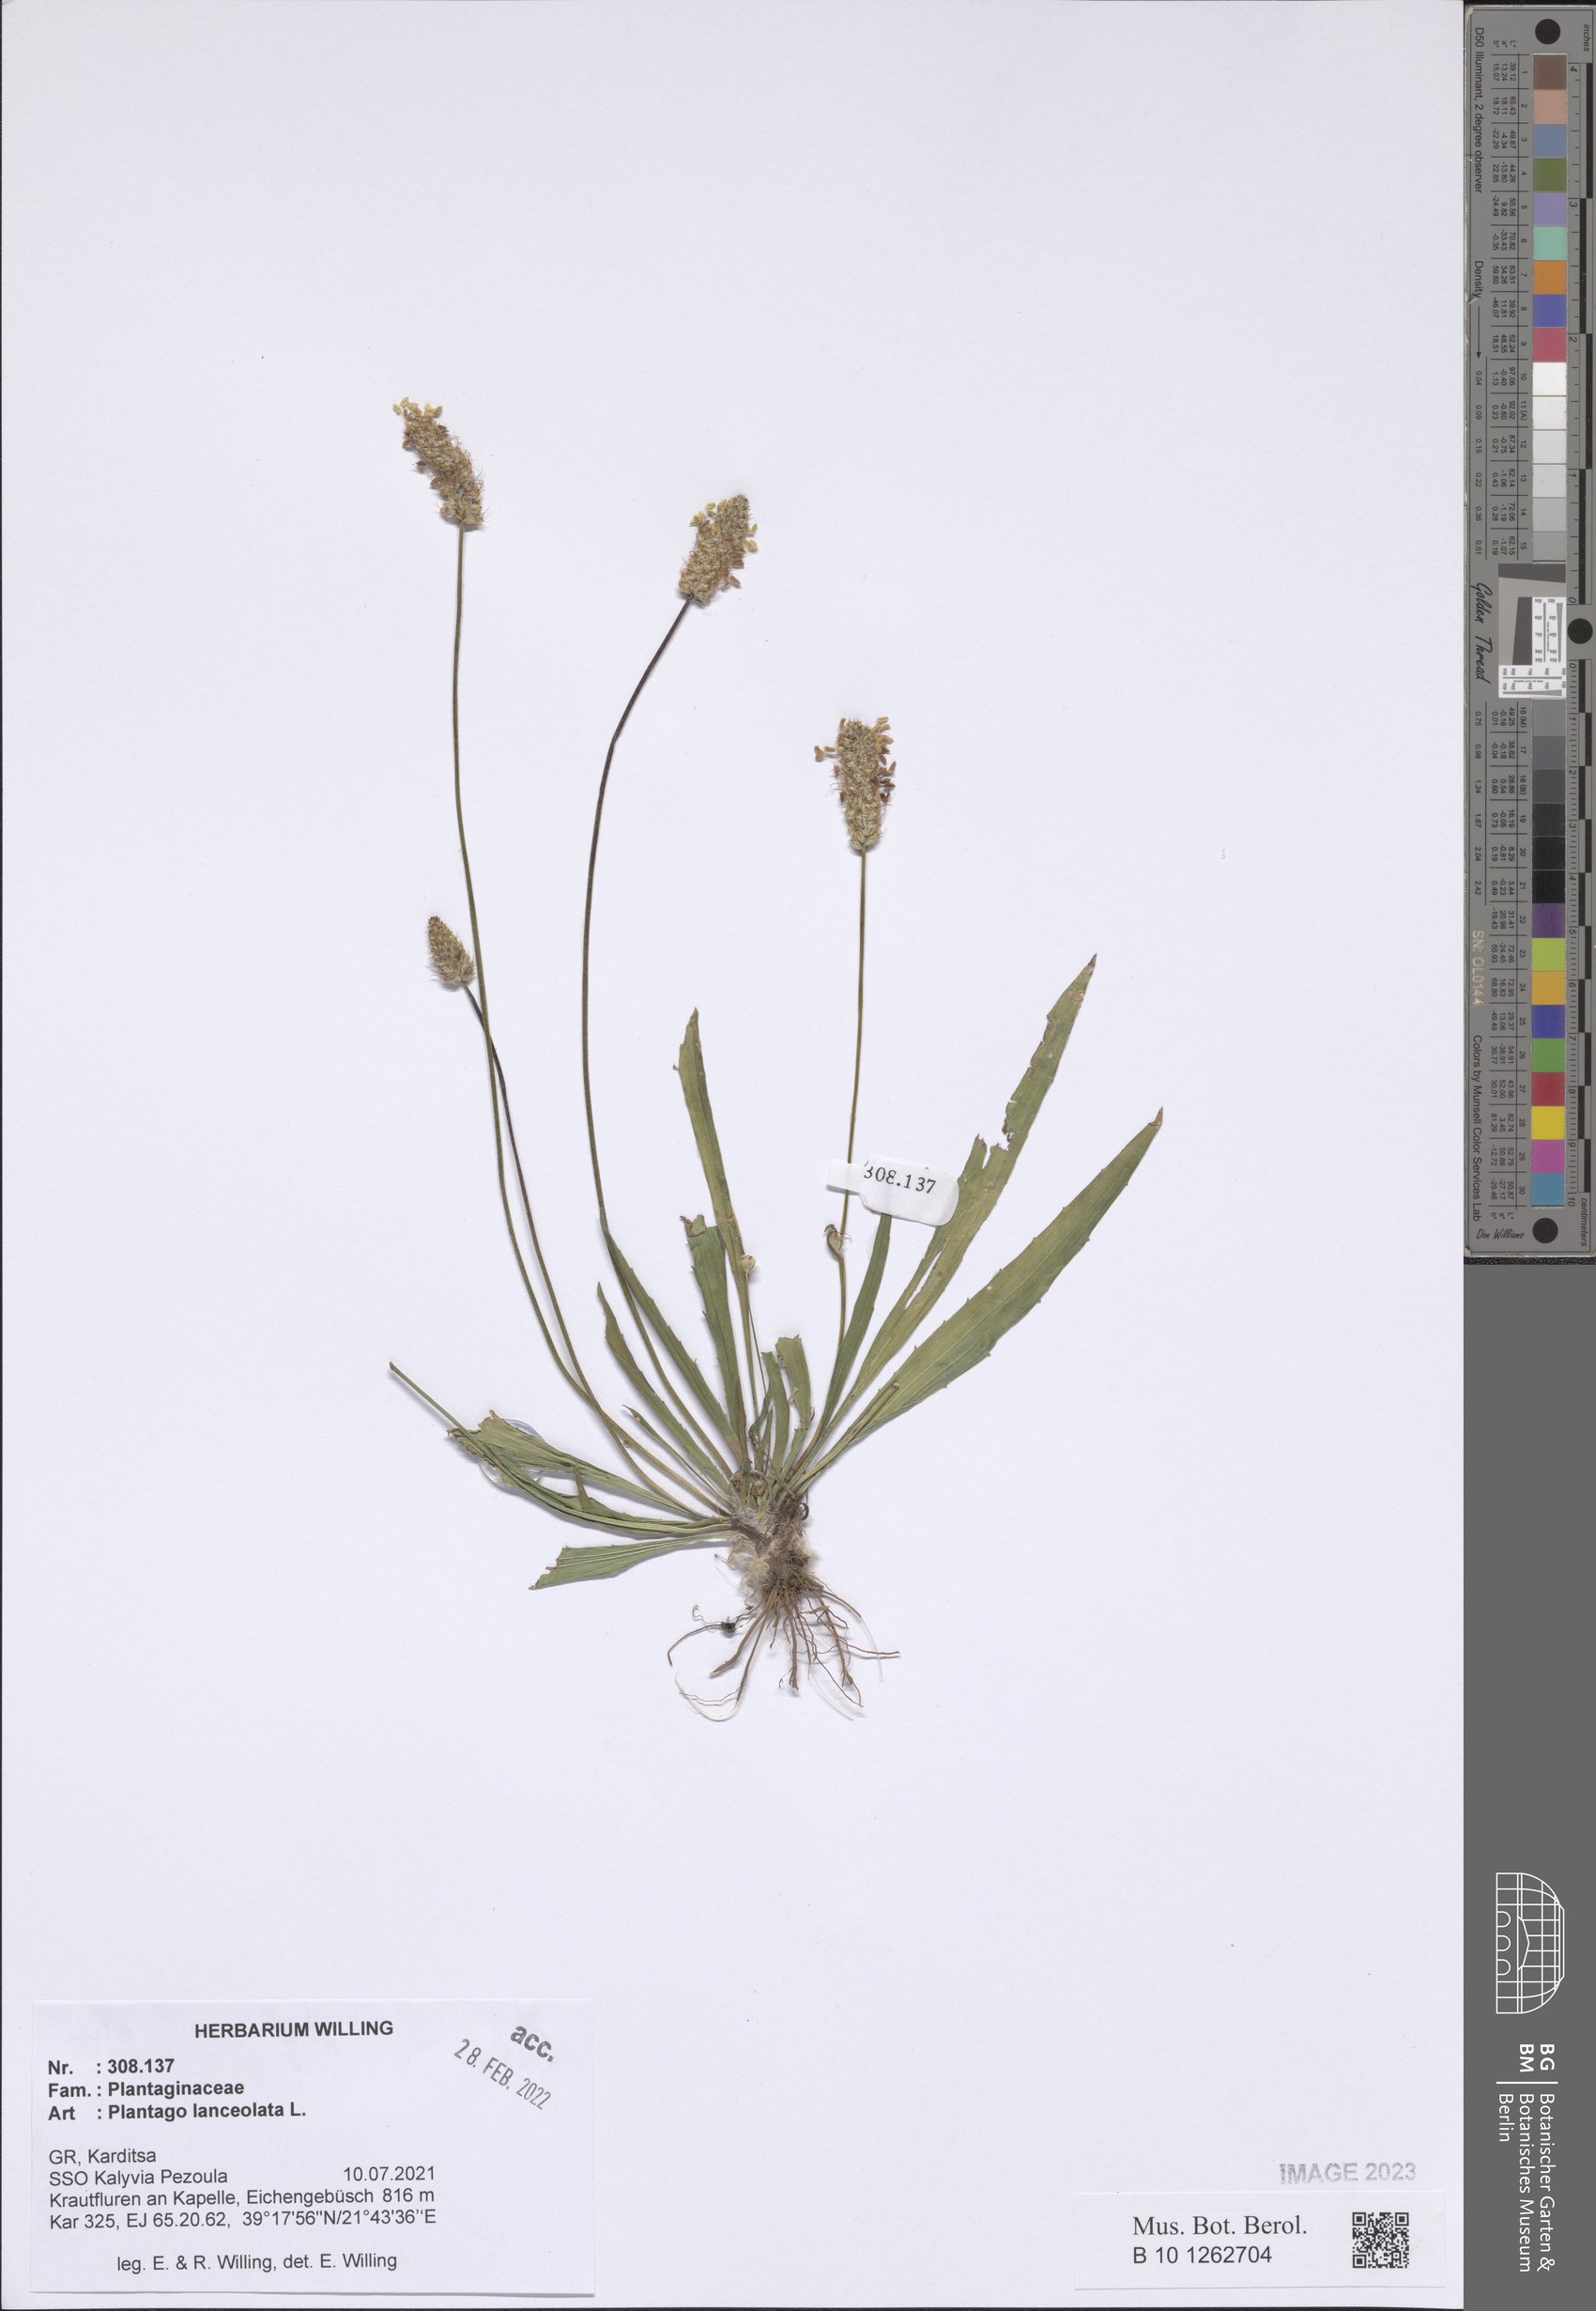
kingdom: Plantae
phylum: Tracheophyta
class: Magnoliopsida
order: Lamiales
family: Plantaginaceae
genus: Plantago
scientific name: Plantago lanceolata
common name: Ribwort plantain
